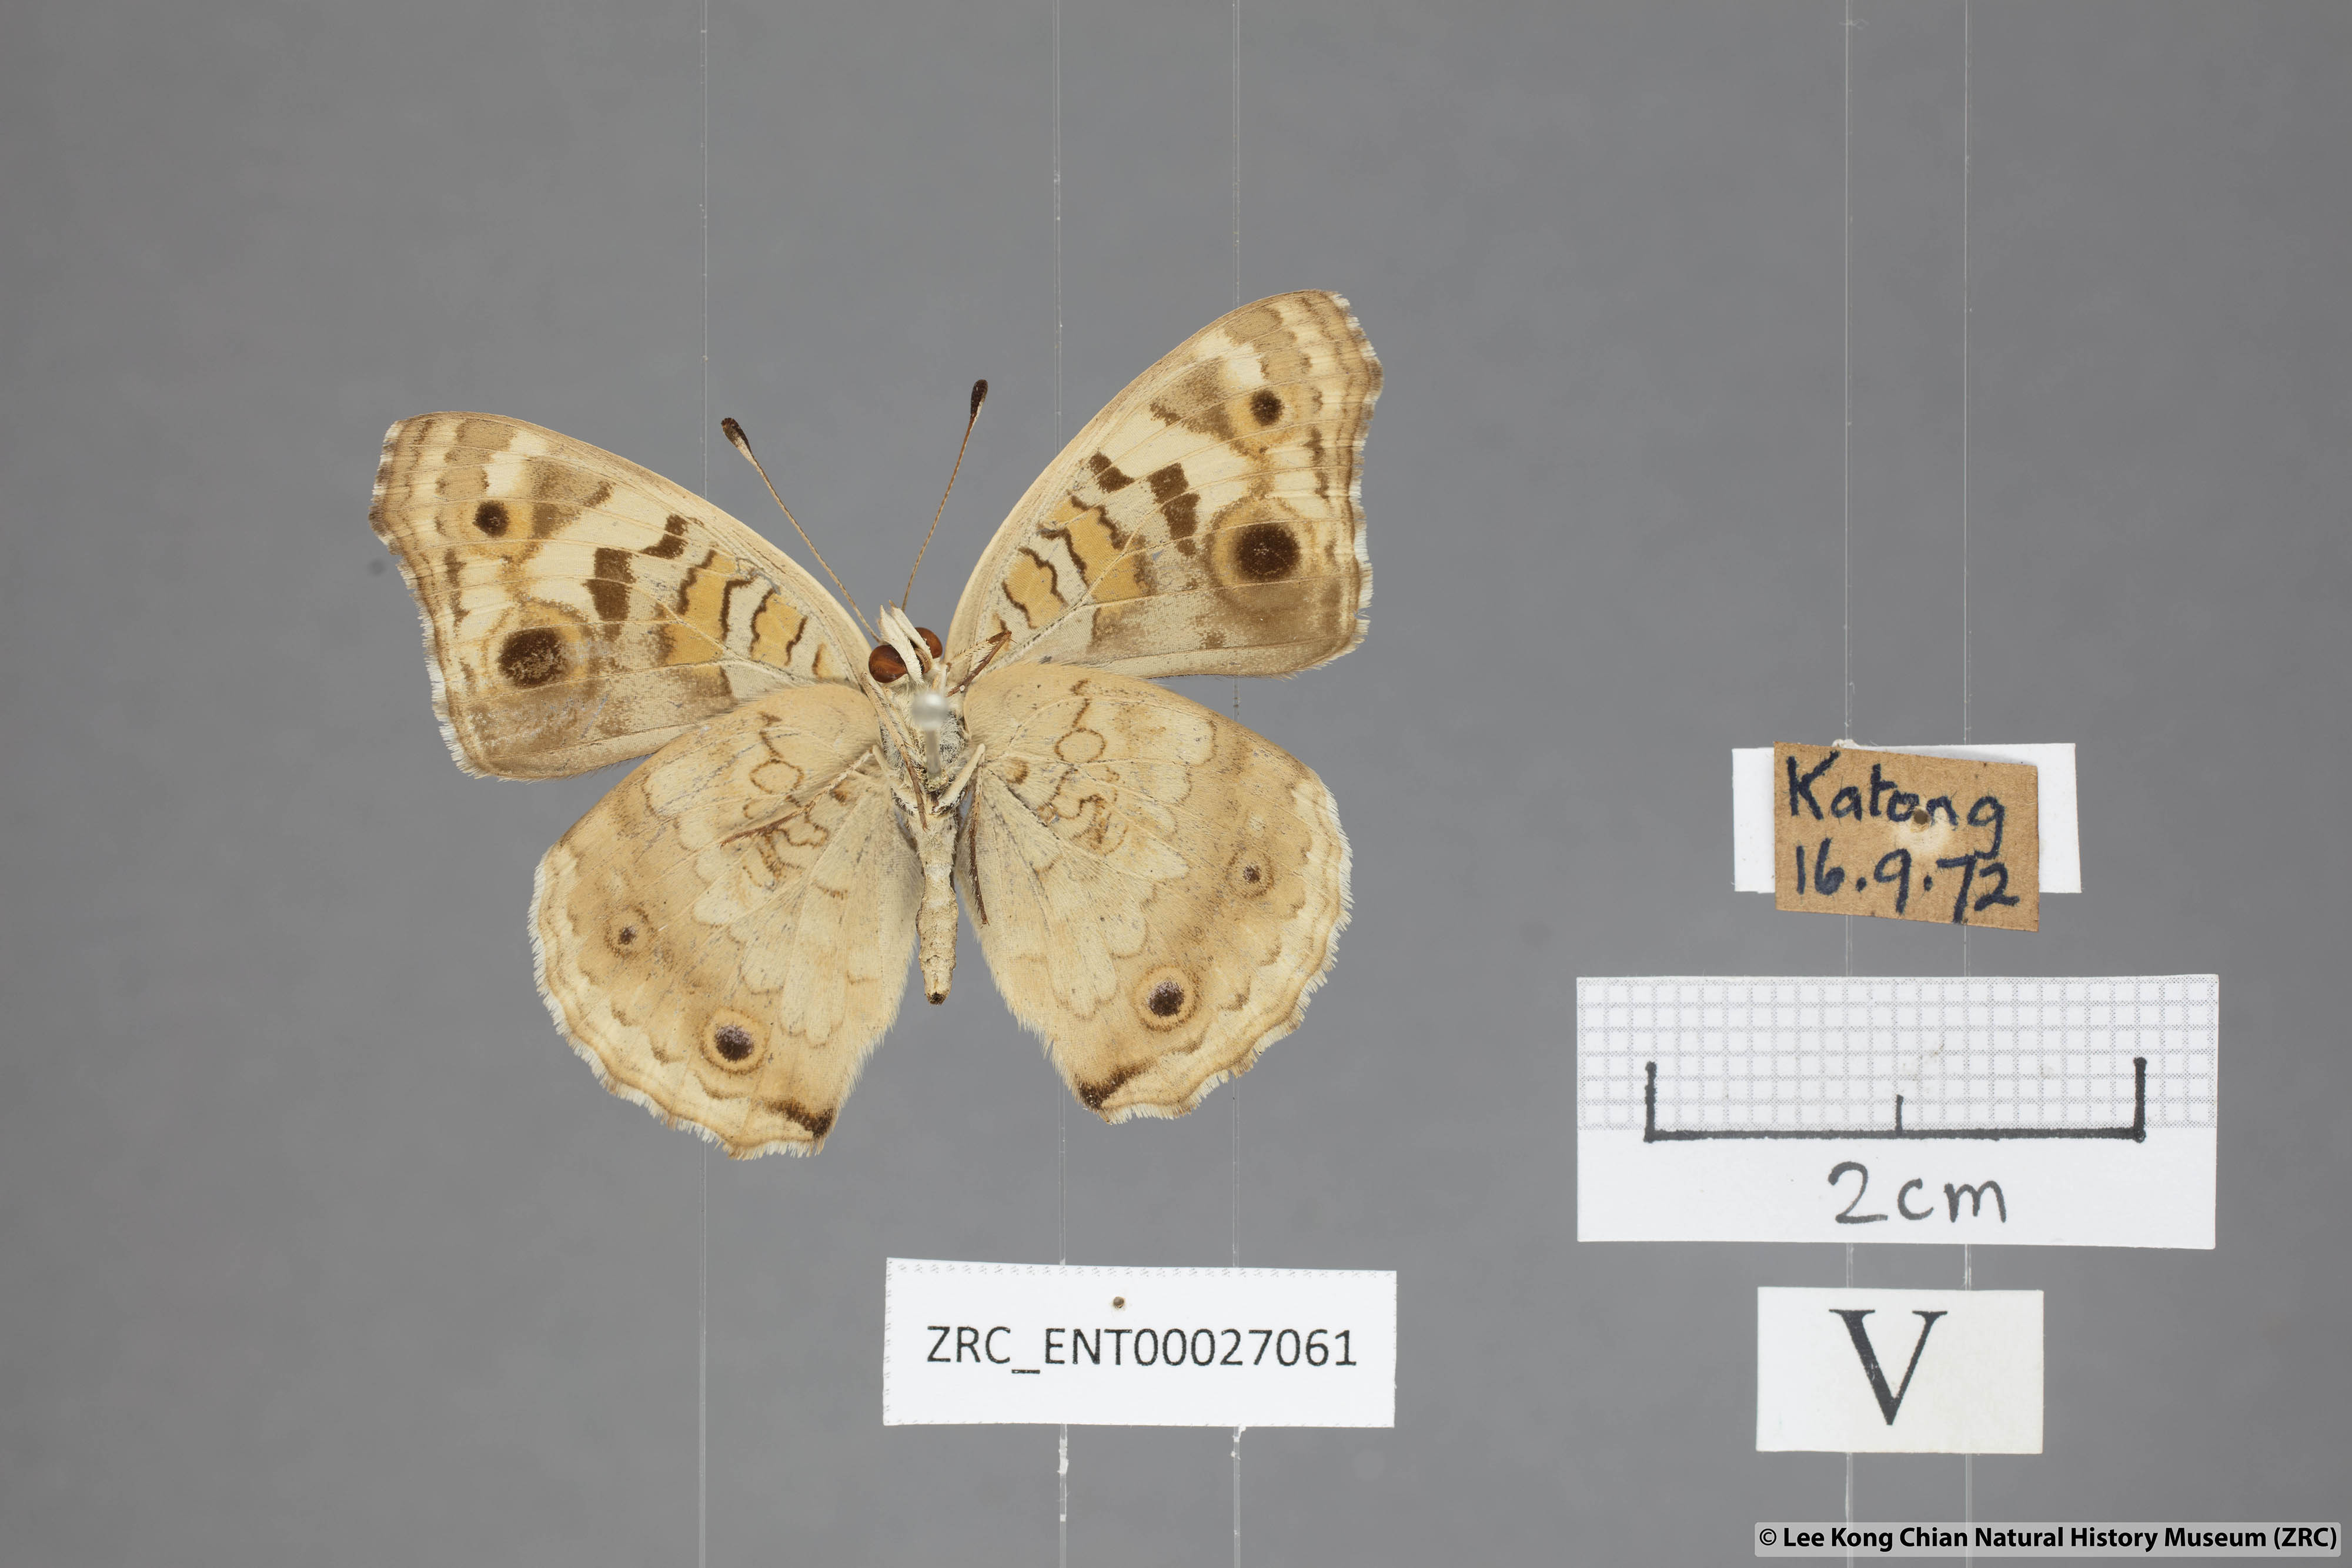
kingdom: Animalia
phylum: Arthropoda
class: Insecta
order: Lepidoptera
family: Nymphalidae
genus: Junonia
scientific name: Junonia orithya
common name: Blue pansy
